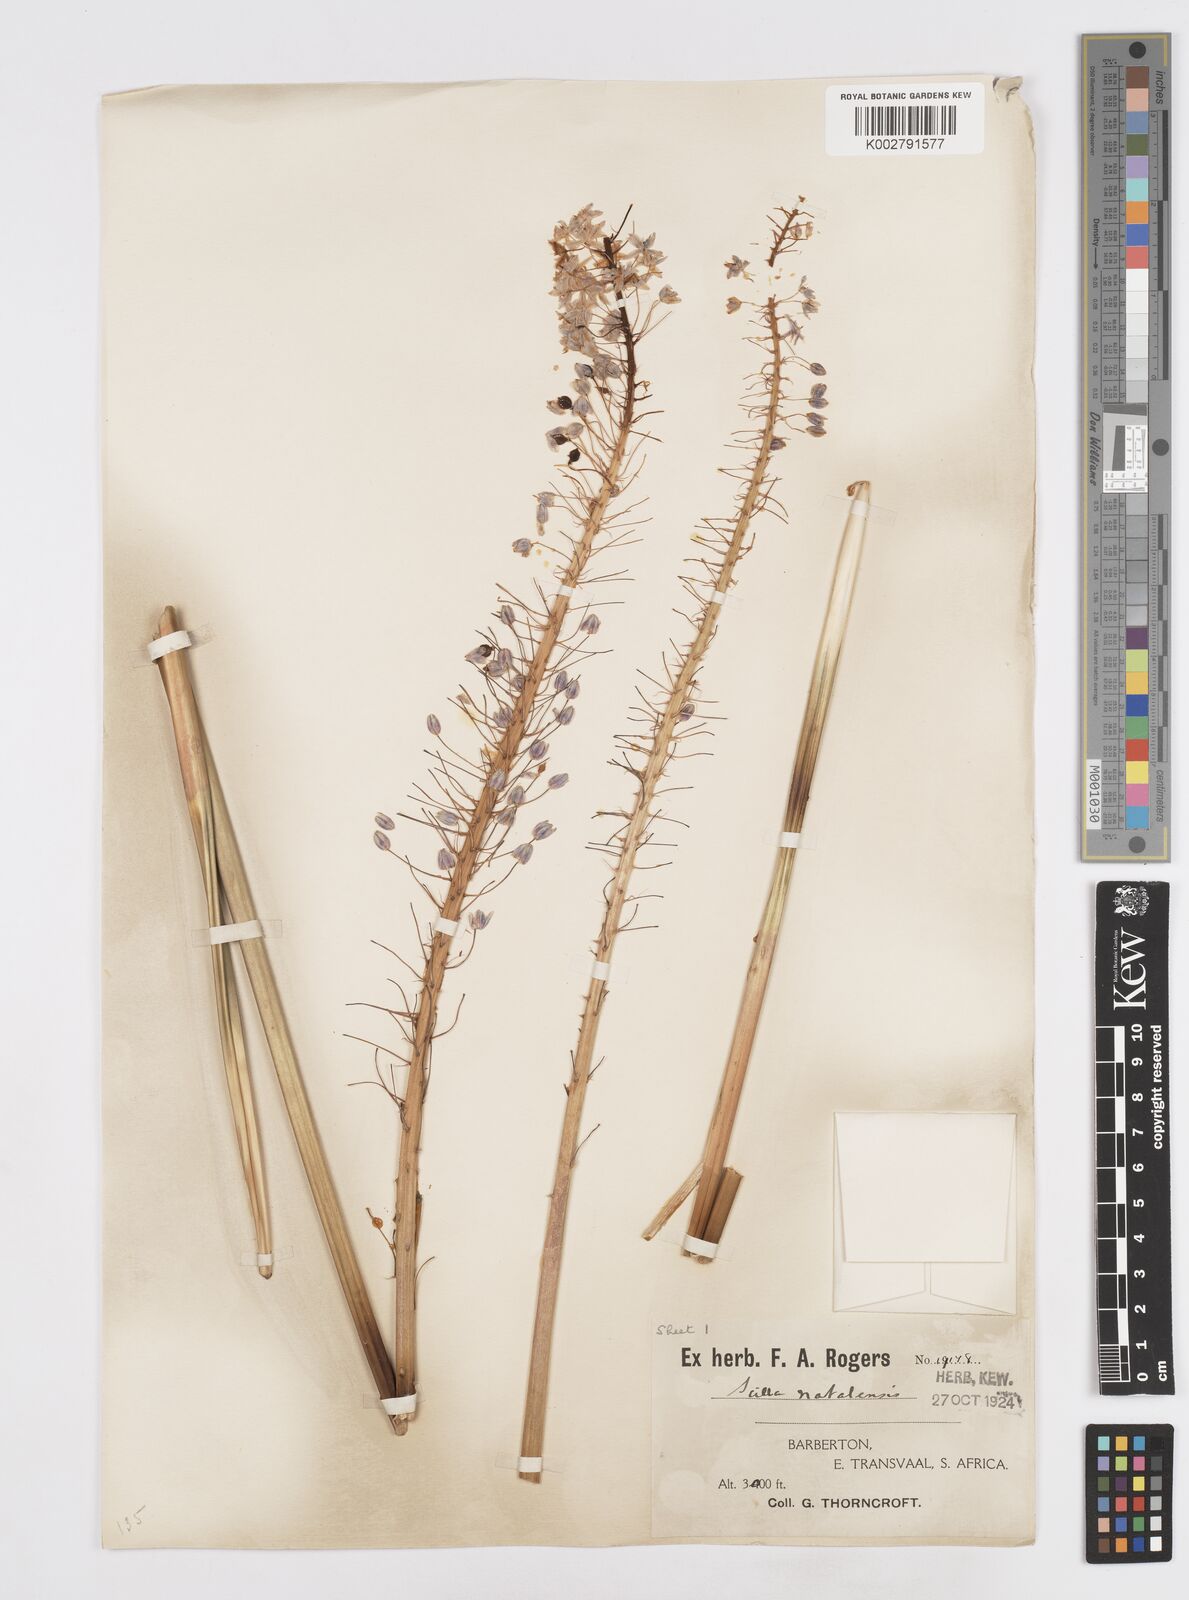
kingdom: Plantae
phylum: Tracheophyta
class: Liliopsida
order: Asparagales
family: Asparagaceae
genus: Merwilla
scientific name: Merwilla plumbea
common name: Blue-squill
